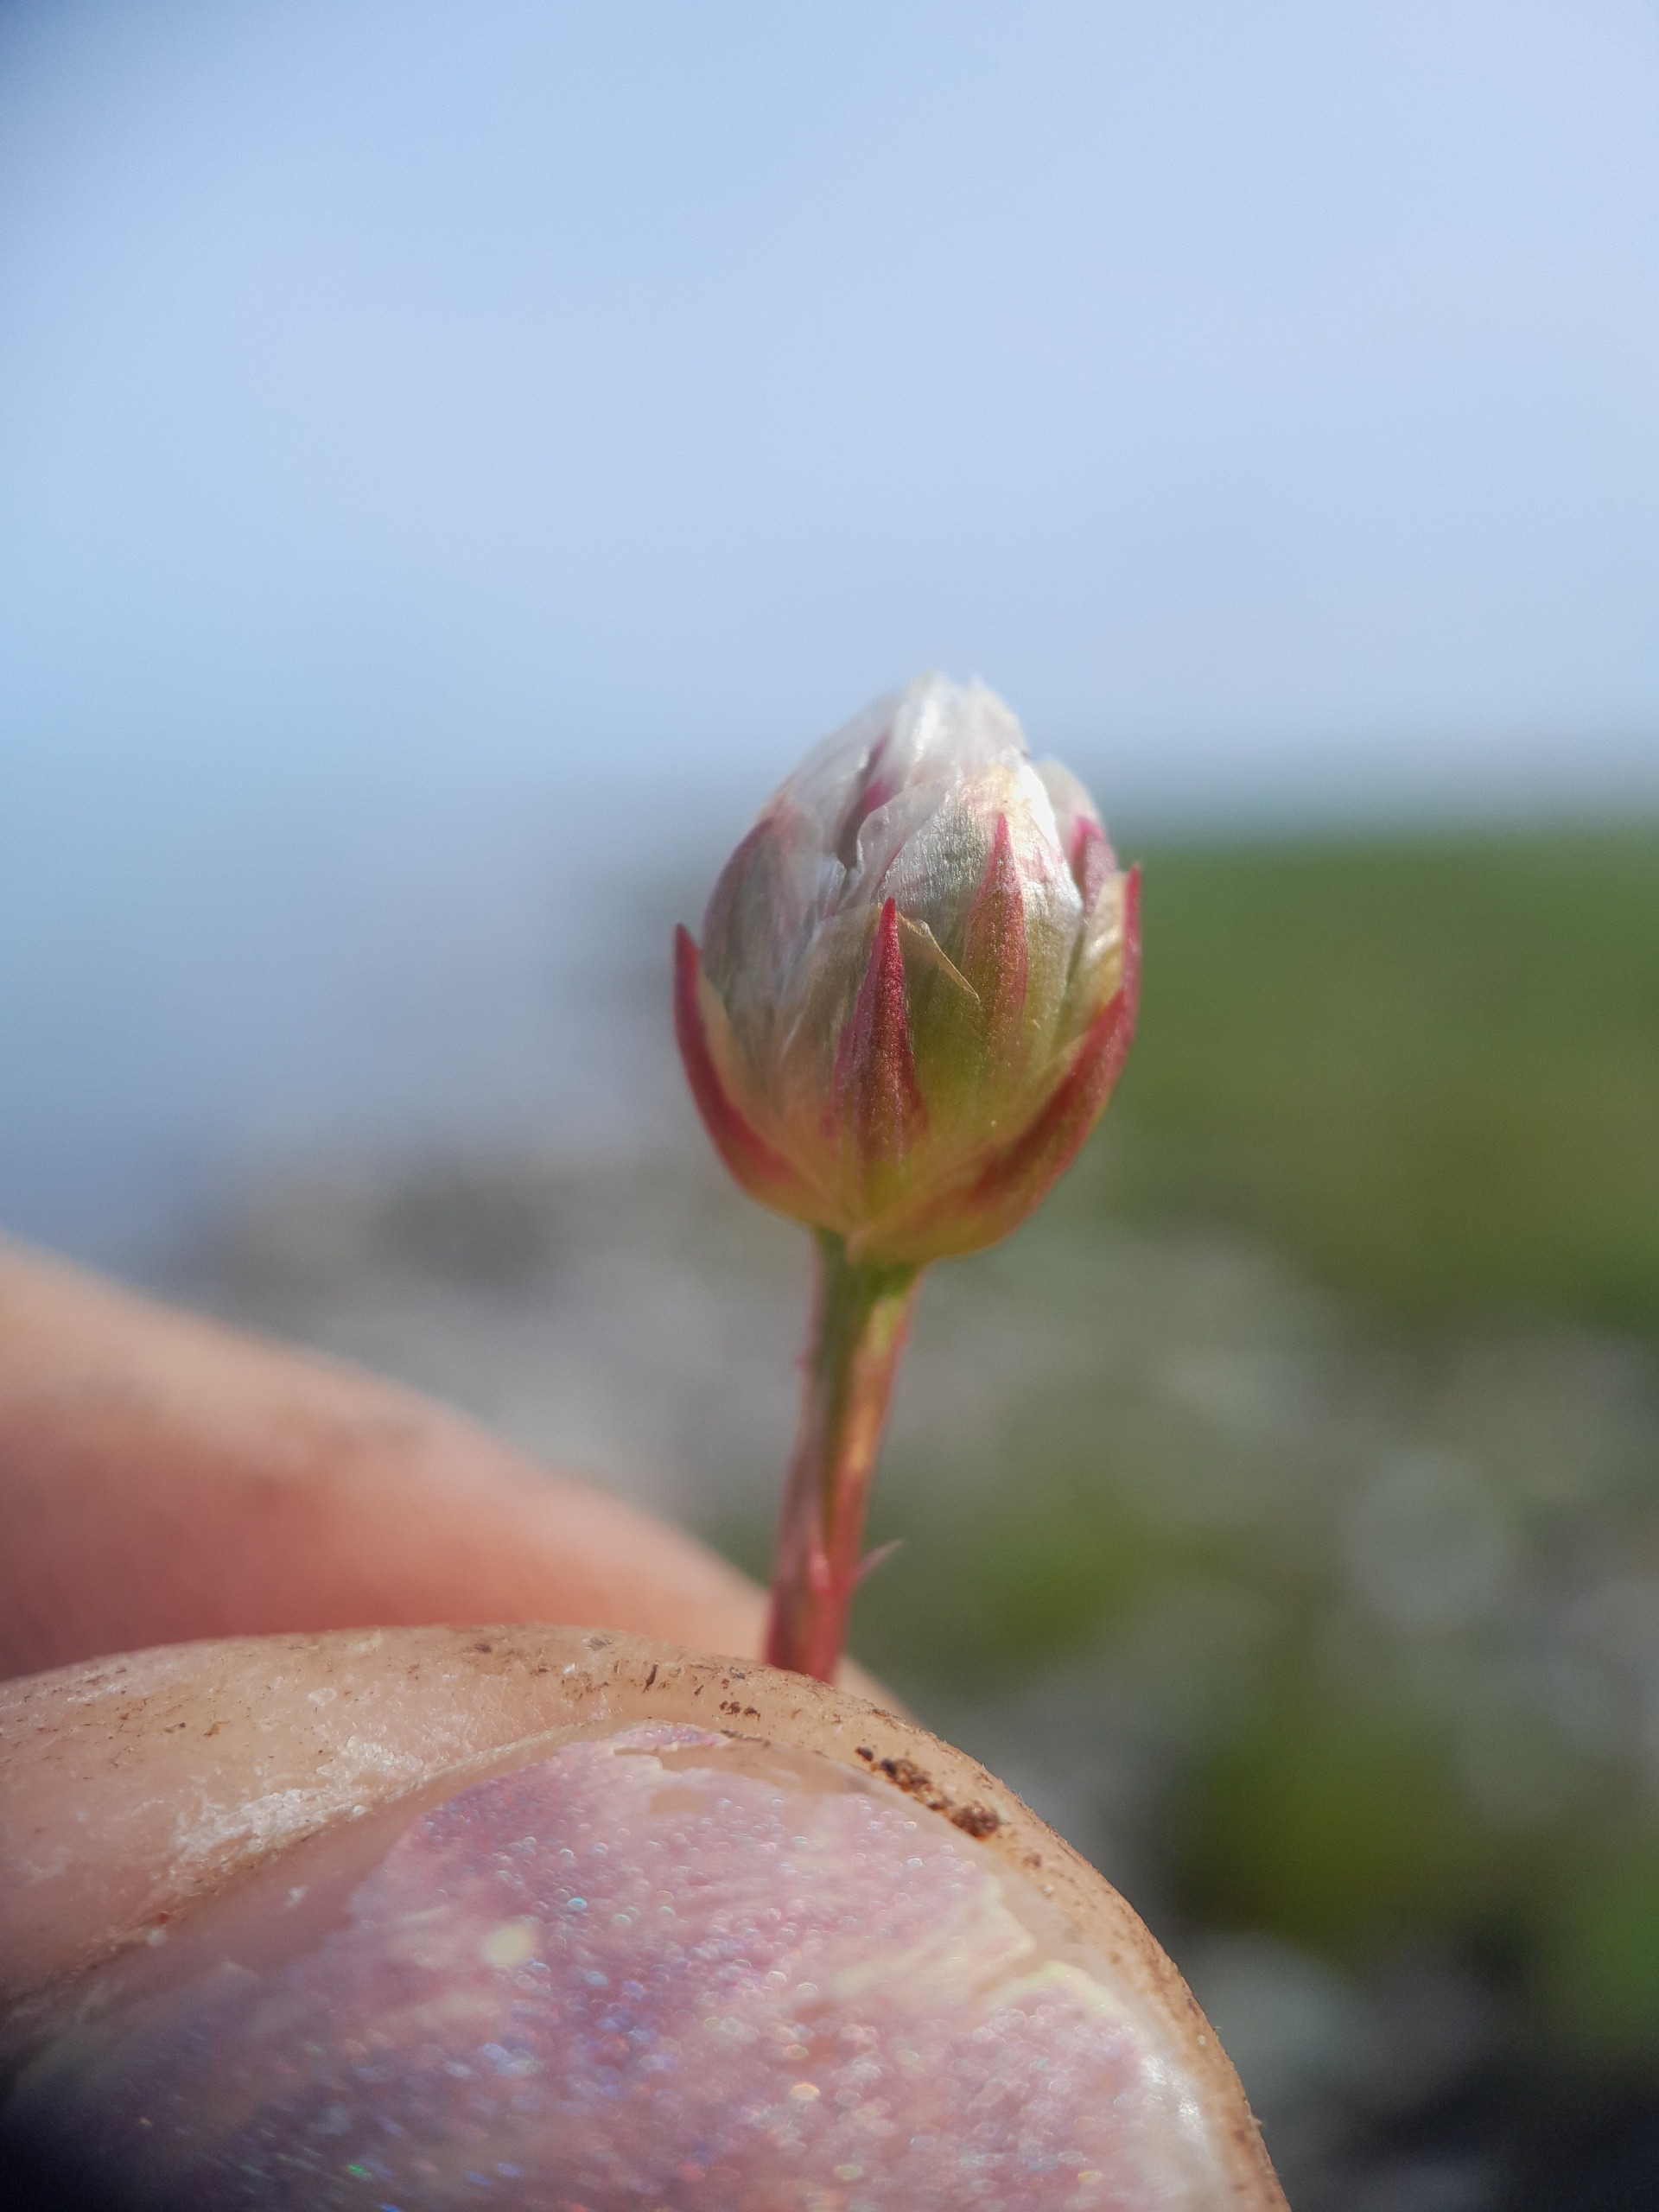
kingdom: Plantae
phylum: Tracheophyta
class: Magnoliopsida
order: Caryophyllales
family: Plumbaginaceae
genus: Armeria
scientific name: Armeria maritima
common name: Strand-engelskgræs
